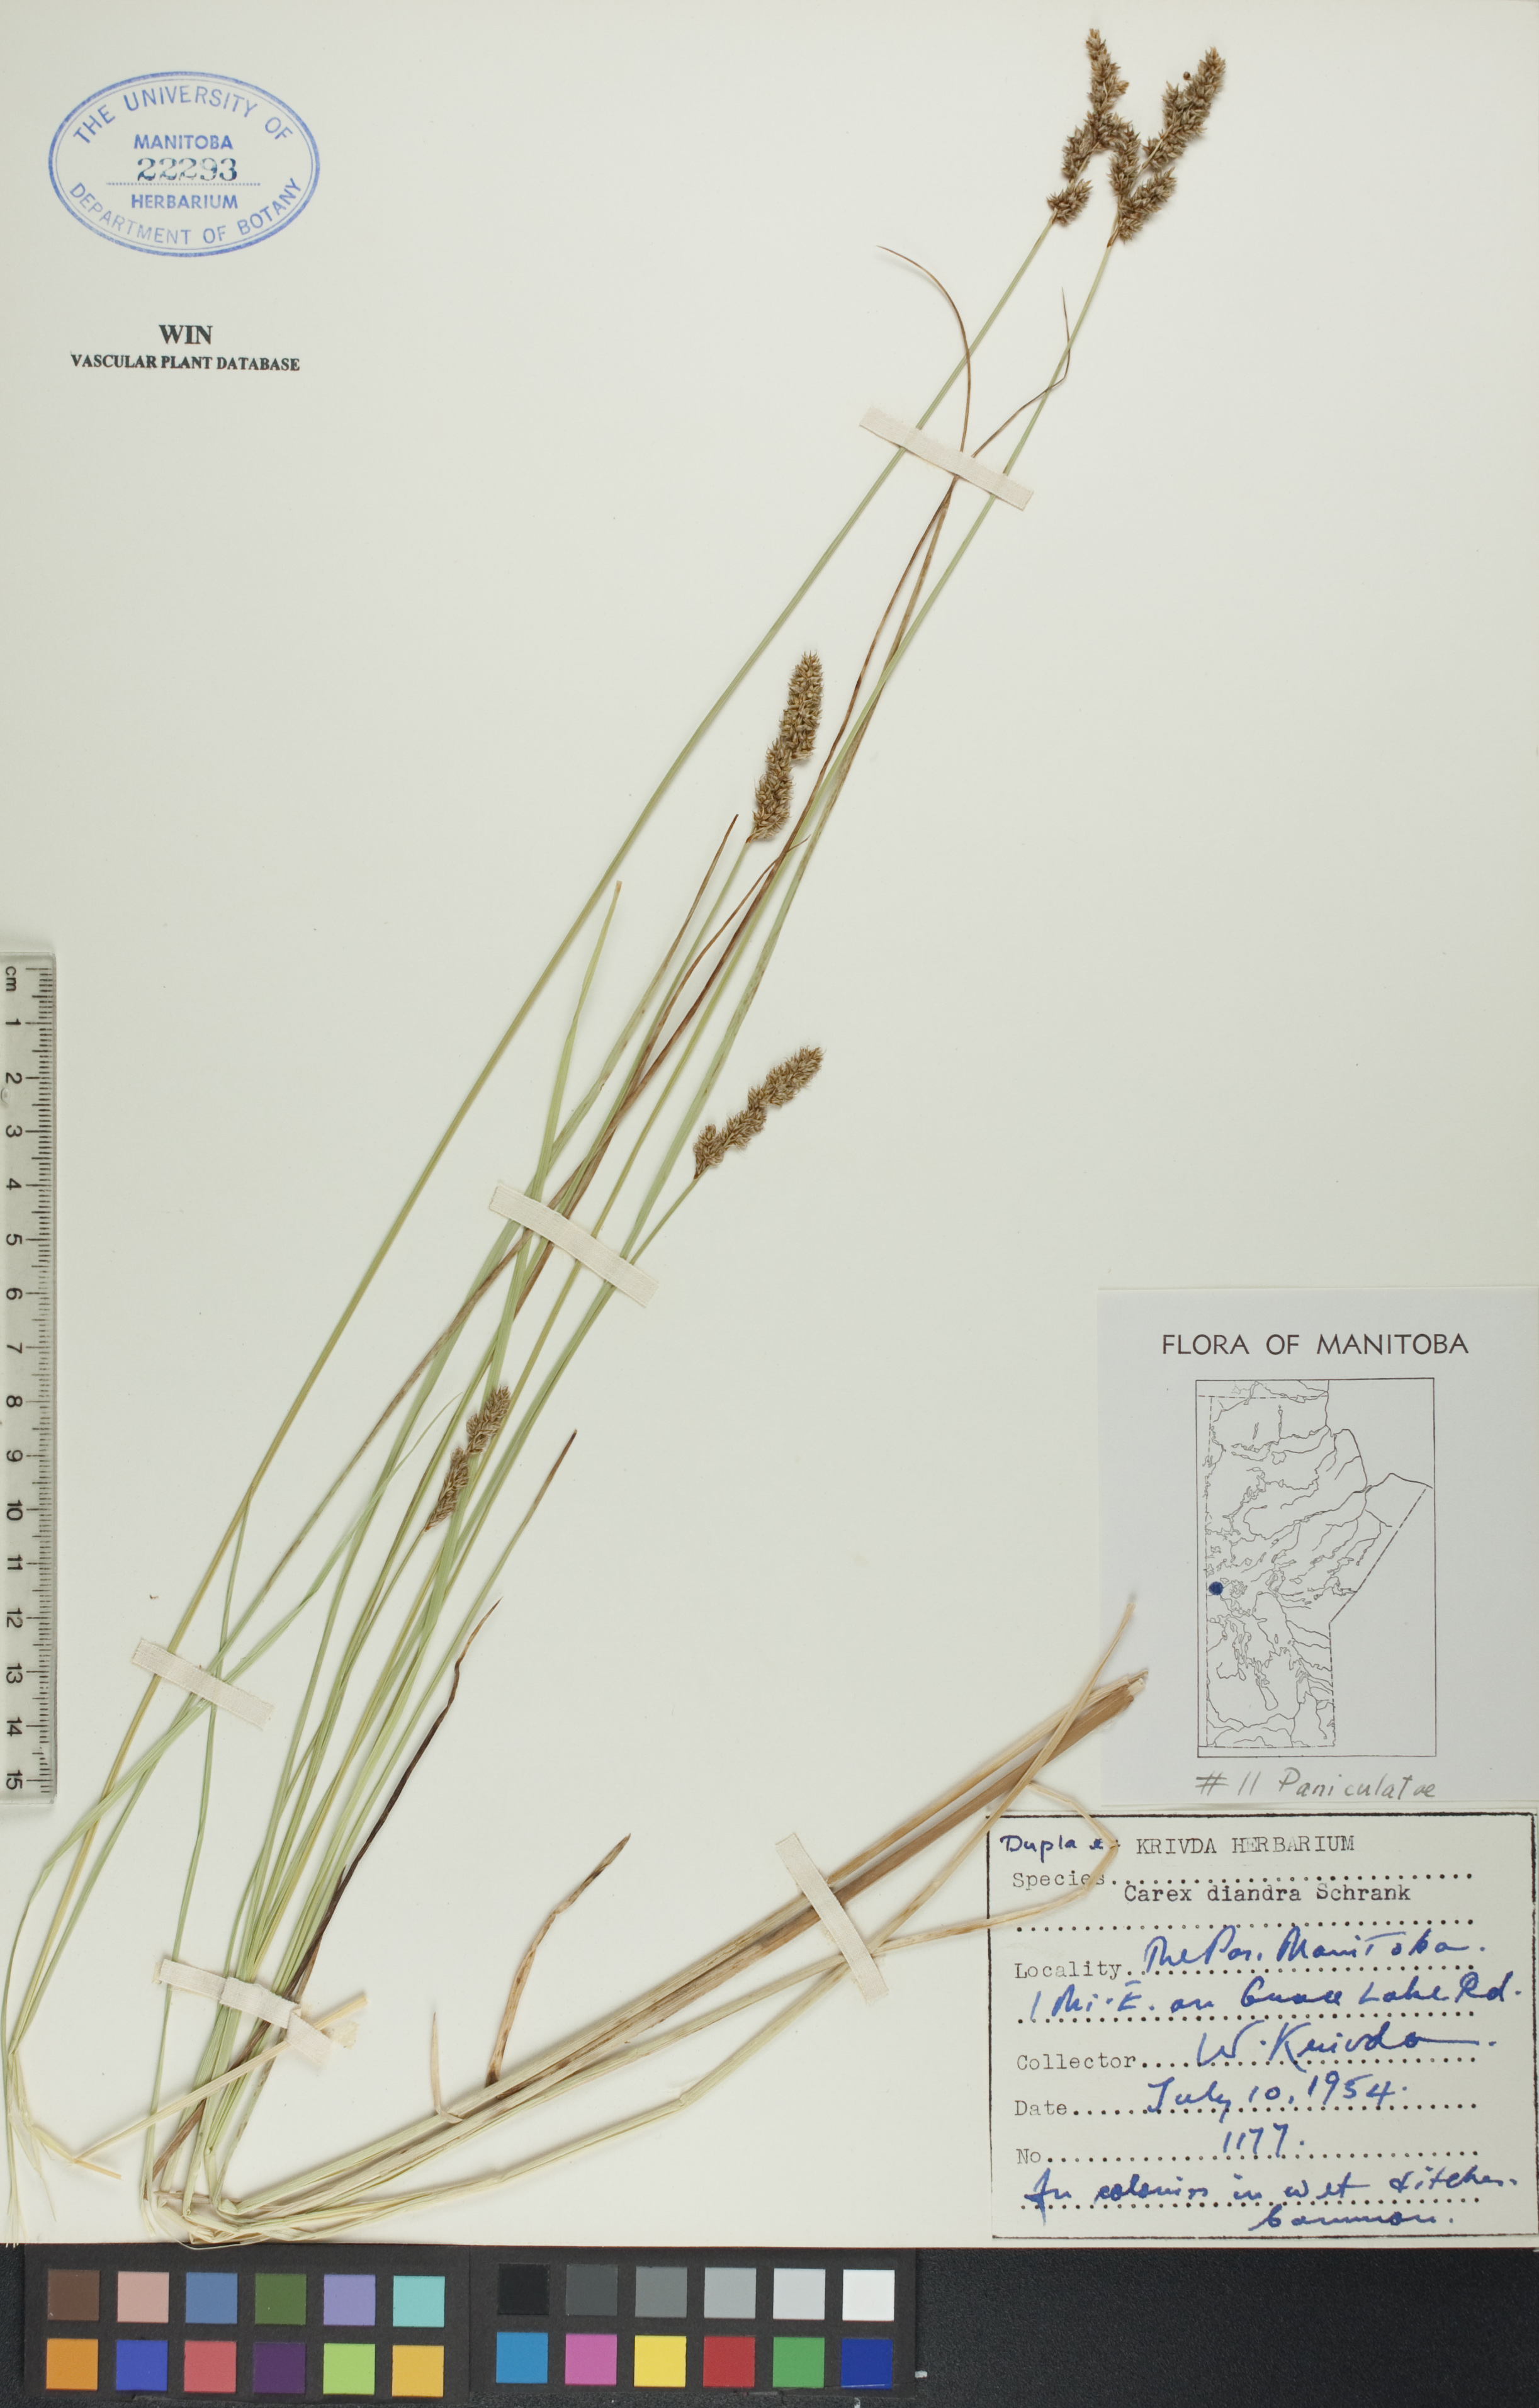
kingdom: Plantae
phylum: Tracheophyta
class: Liliopsida
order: Poales
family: Cyperaceae
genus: Carex
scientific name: Carex diandra
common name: Lesser tussock-sedge
